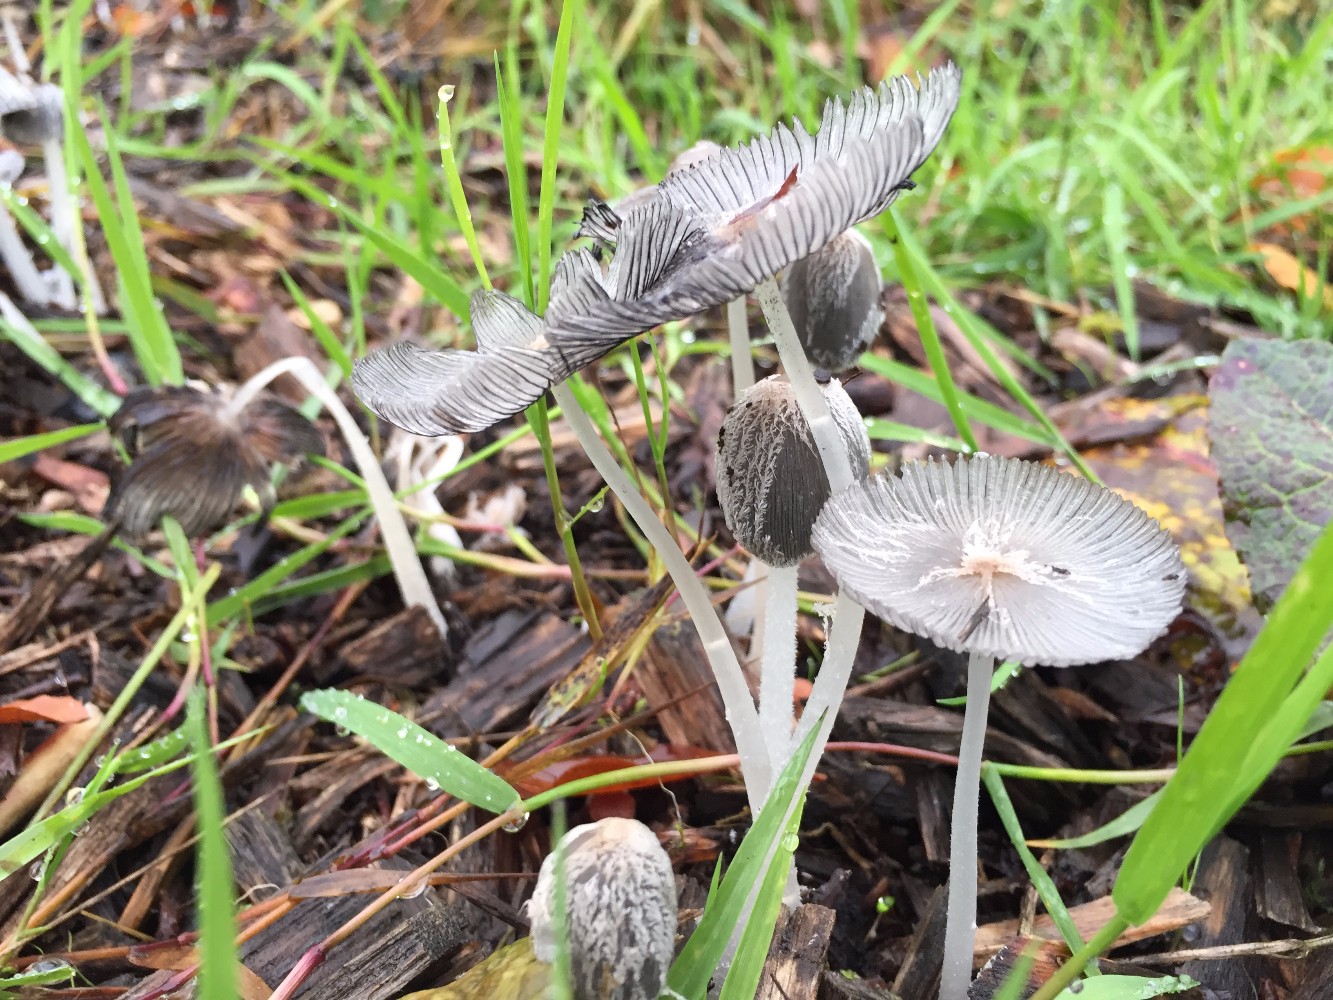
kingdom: Fungi
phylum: Basidiomycota
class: Agaricomycetes
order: Agaricales
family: Psathyrellaceae
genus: Coprinopsis
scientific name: Coprinopsis lagopus
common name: dunstokket blækhat
